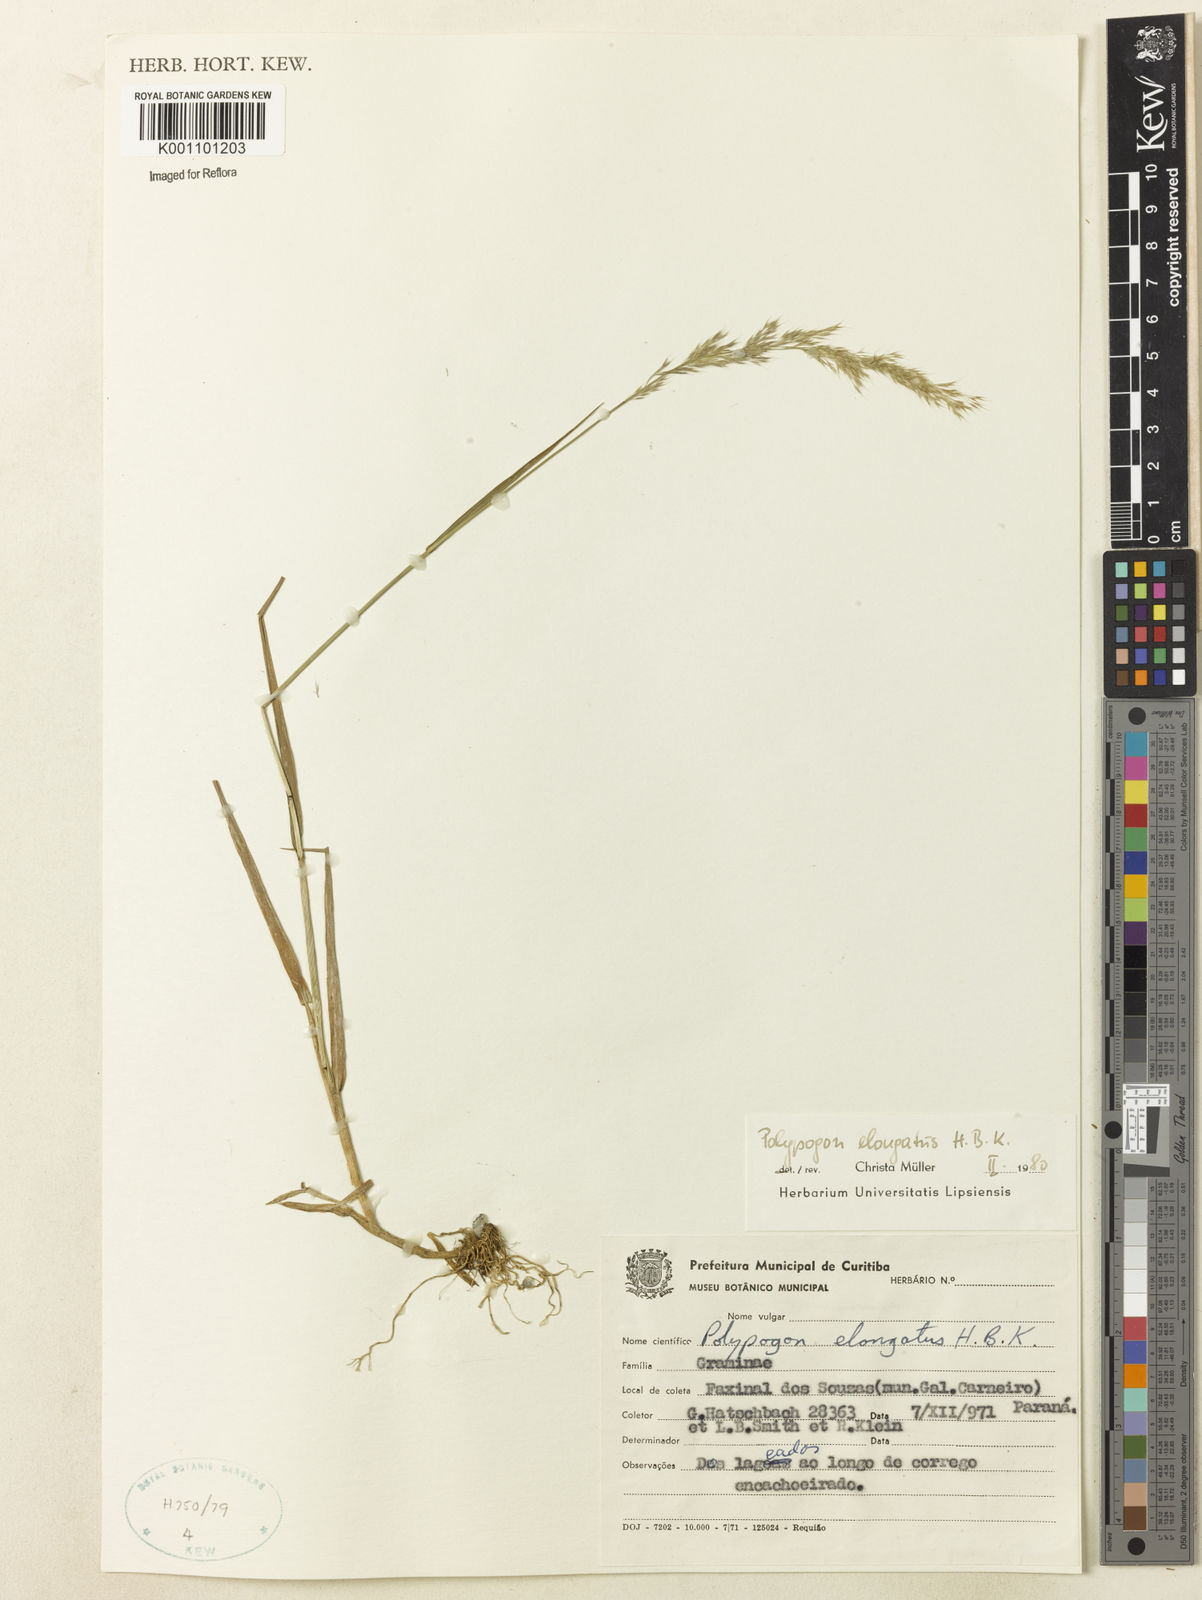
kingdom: Plantae
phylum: Tracheophyta
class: Liliopsida
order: Poales
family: Poaceae
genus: Polypogon
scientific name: Polypogon elongatus
